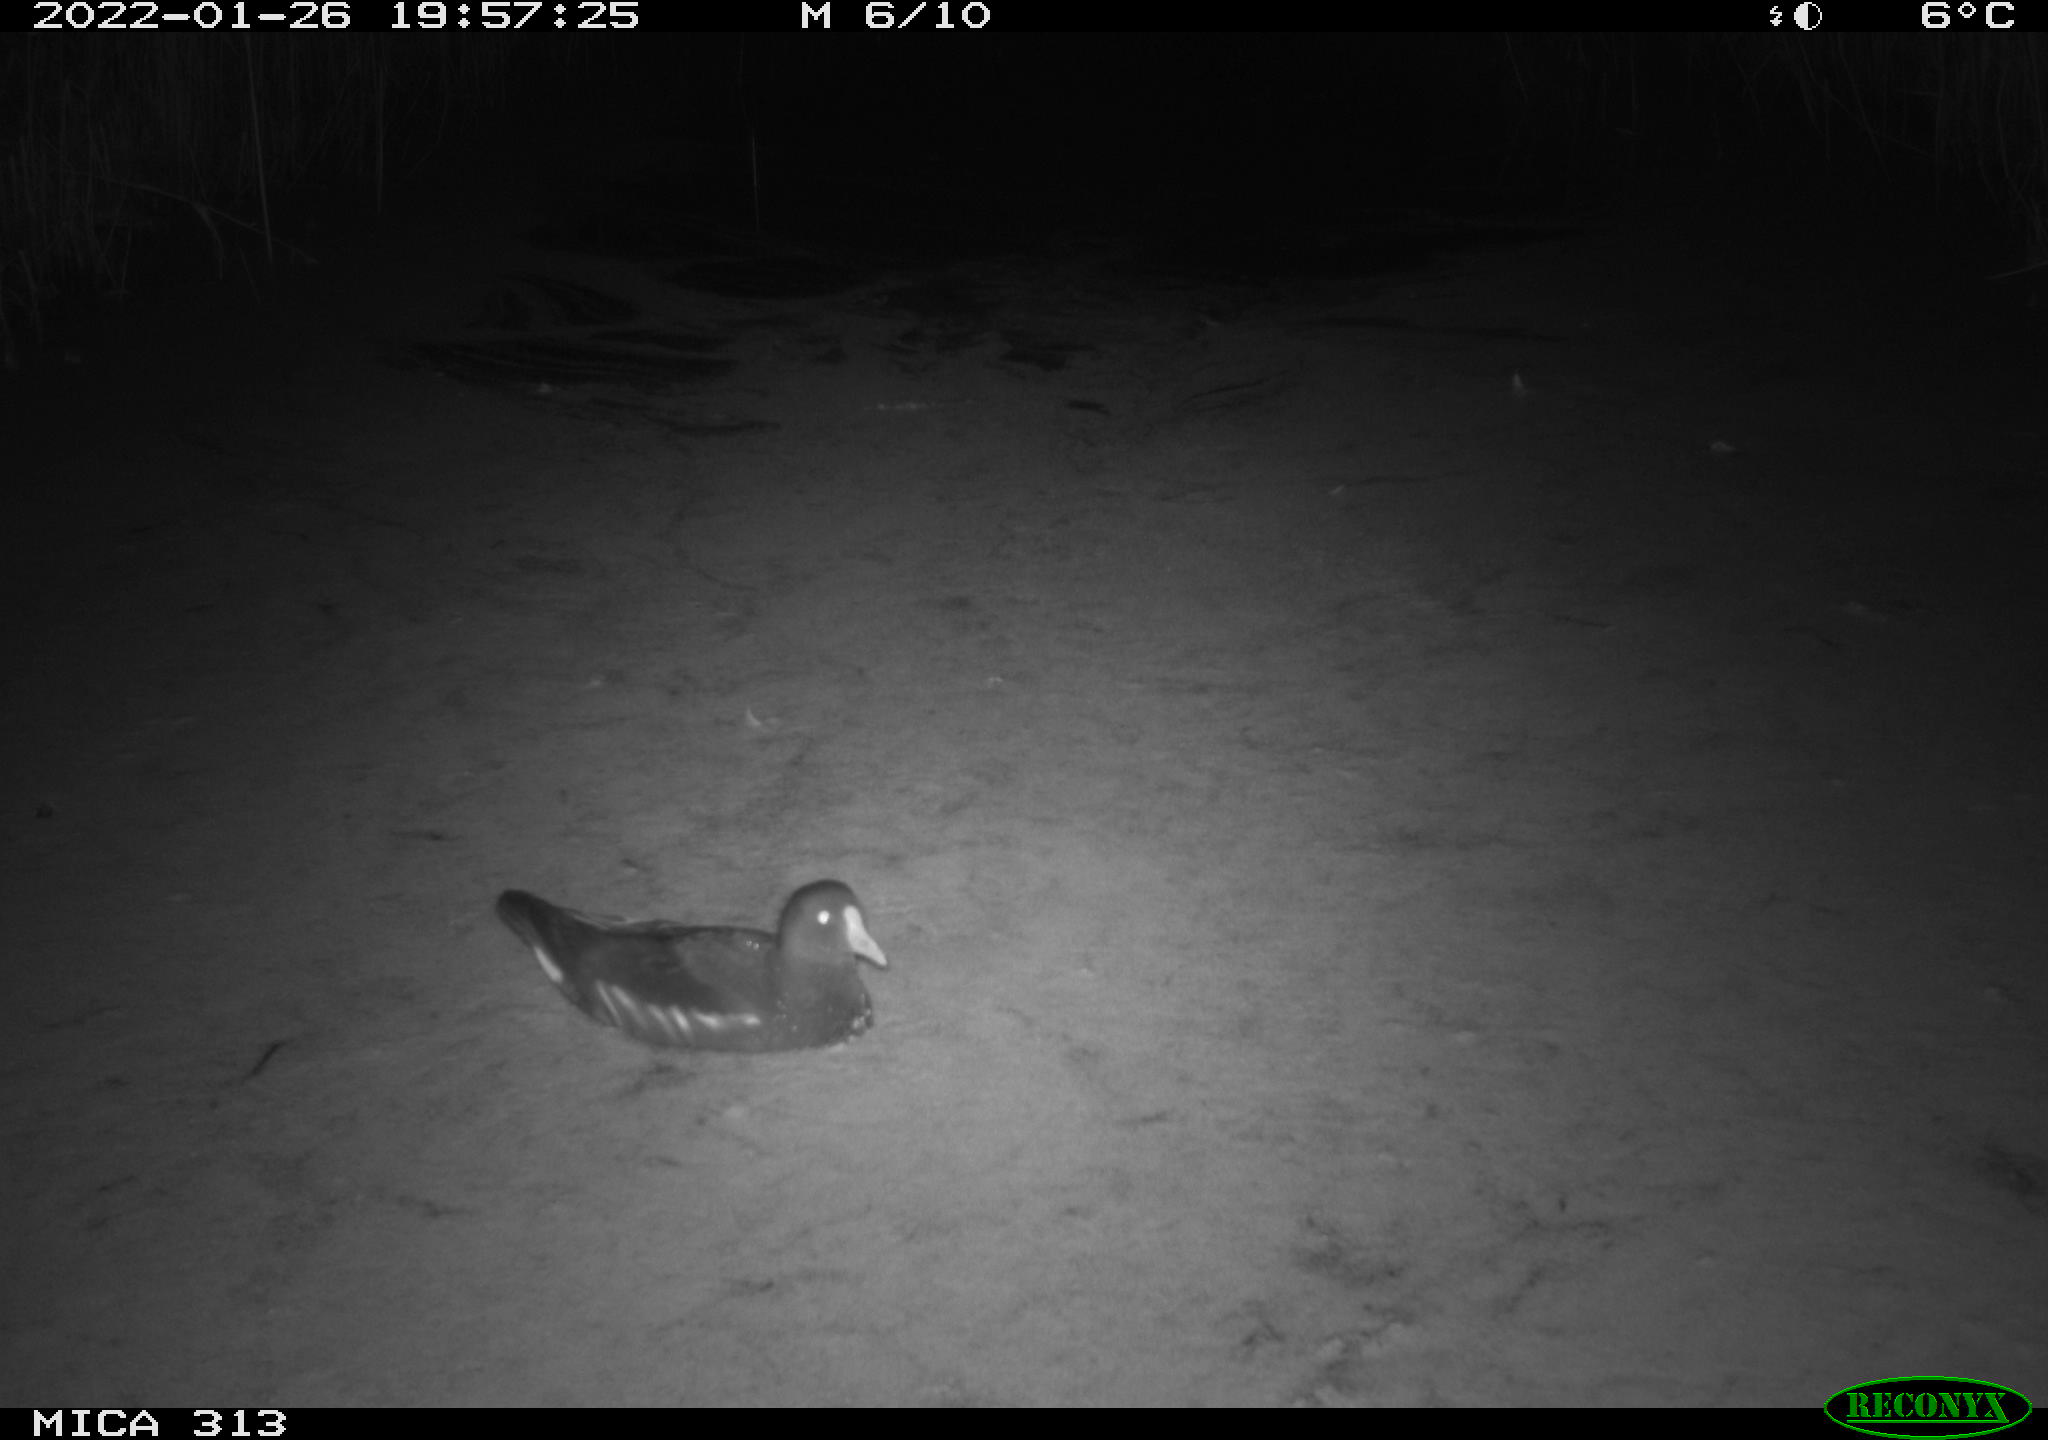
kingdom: Animalia
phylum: Chordata
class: Aves
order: Gruiformes
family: Rallidae
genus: Gallinula
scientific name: Gallinula chloropus
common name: Common moorhen
